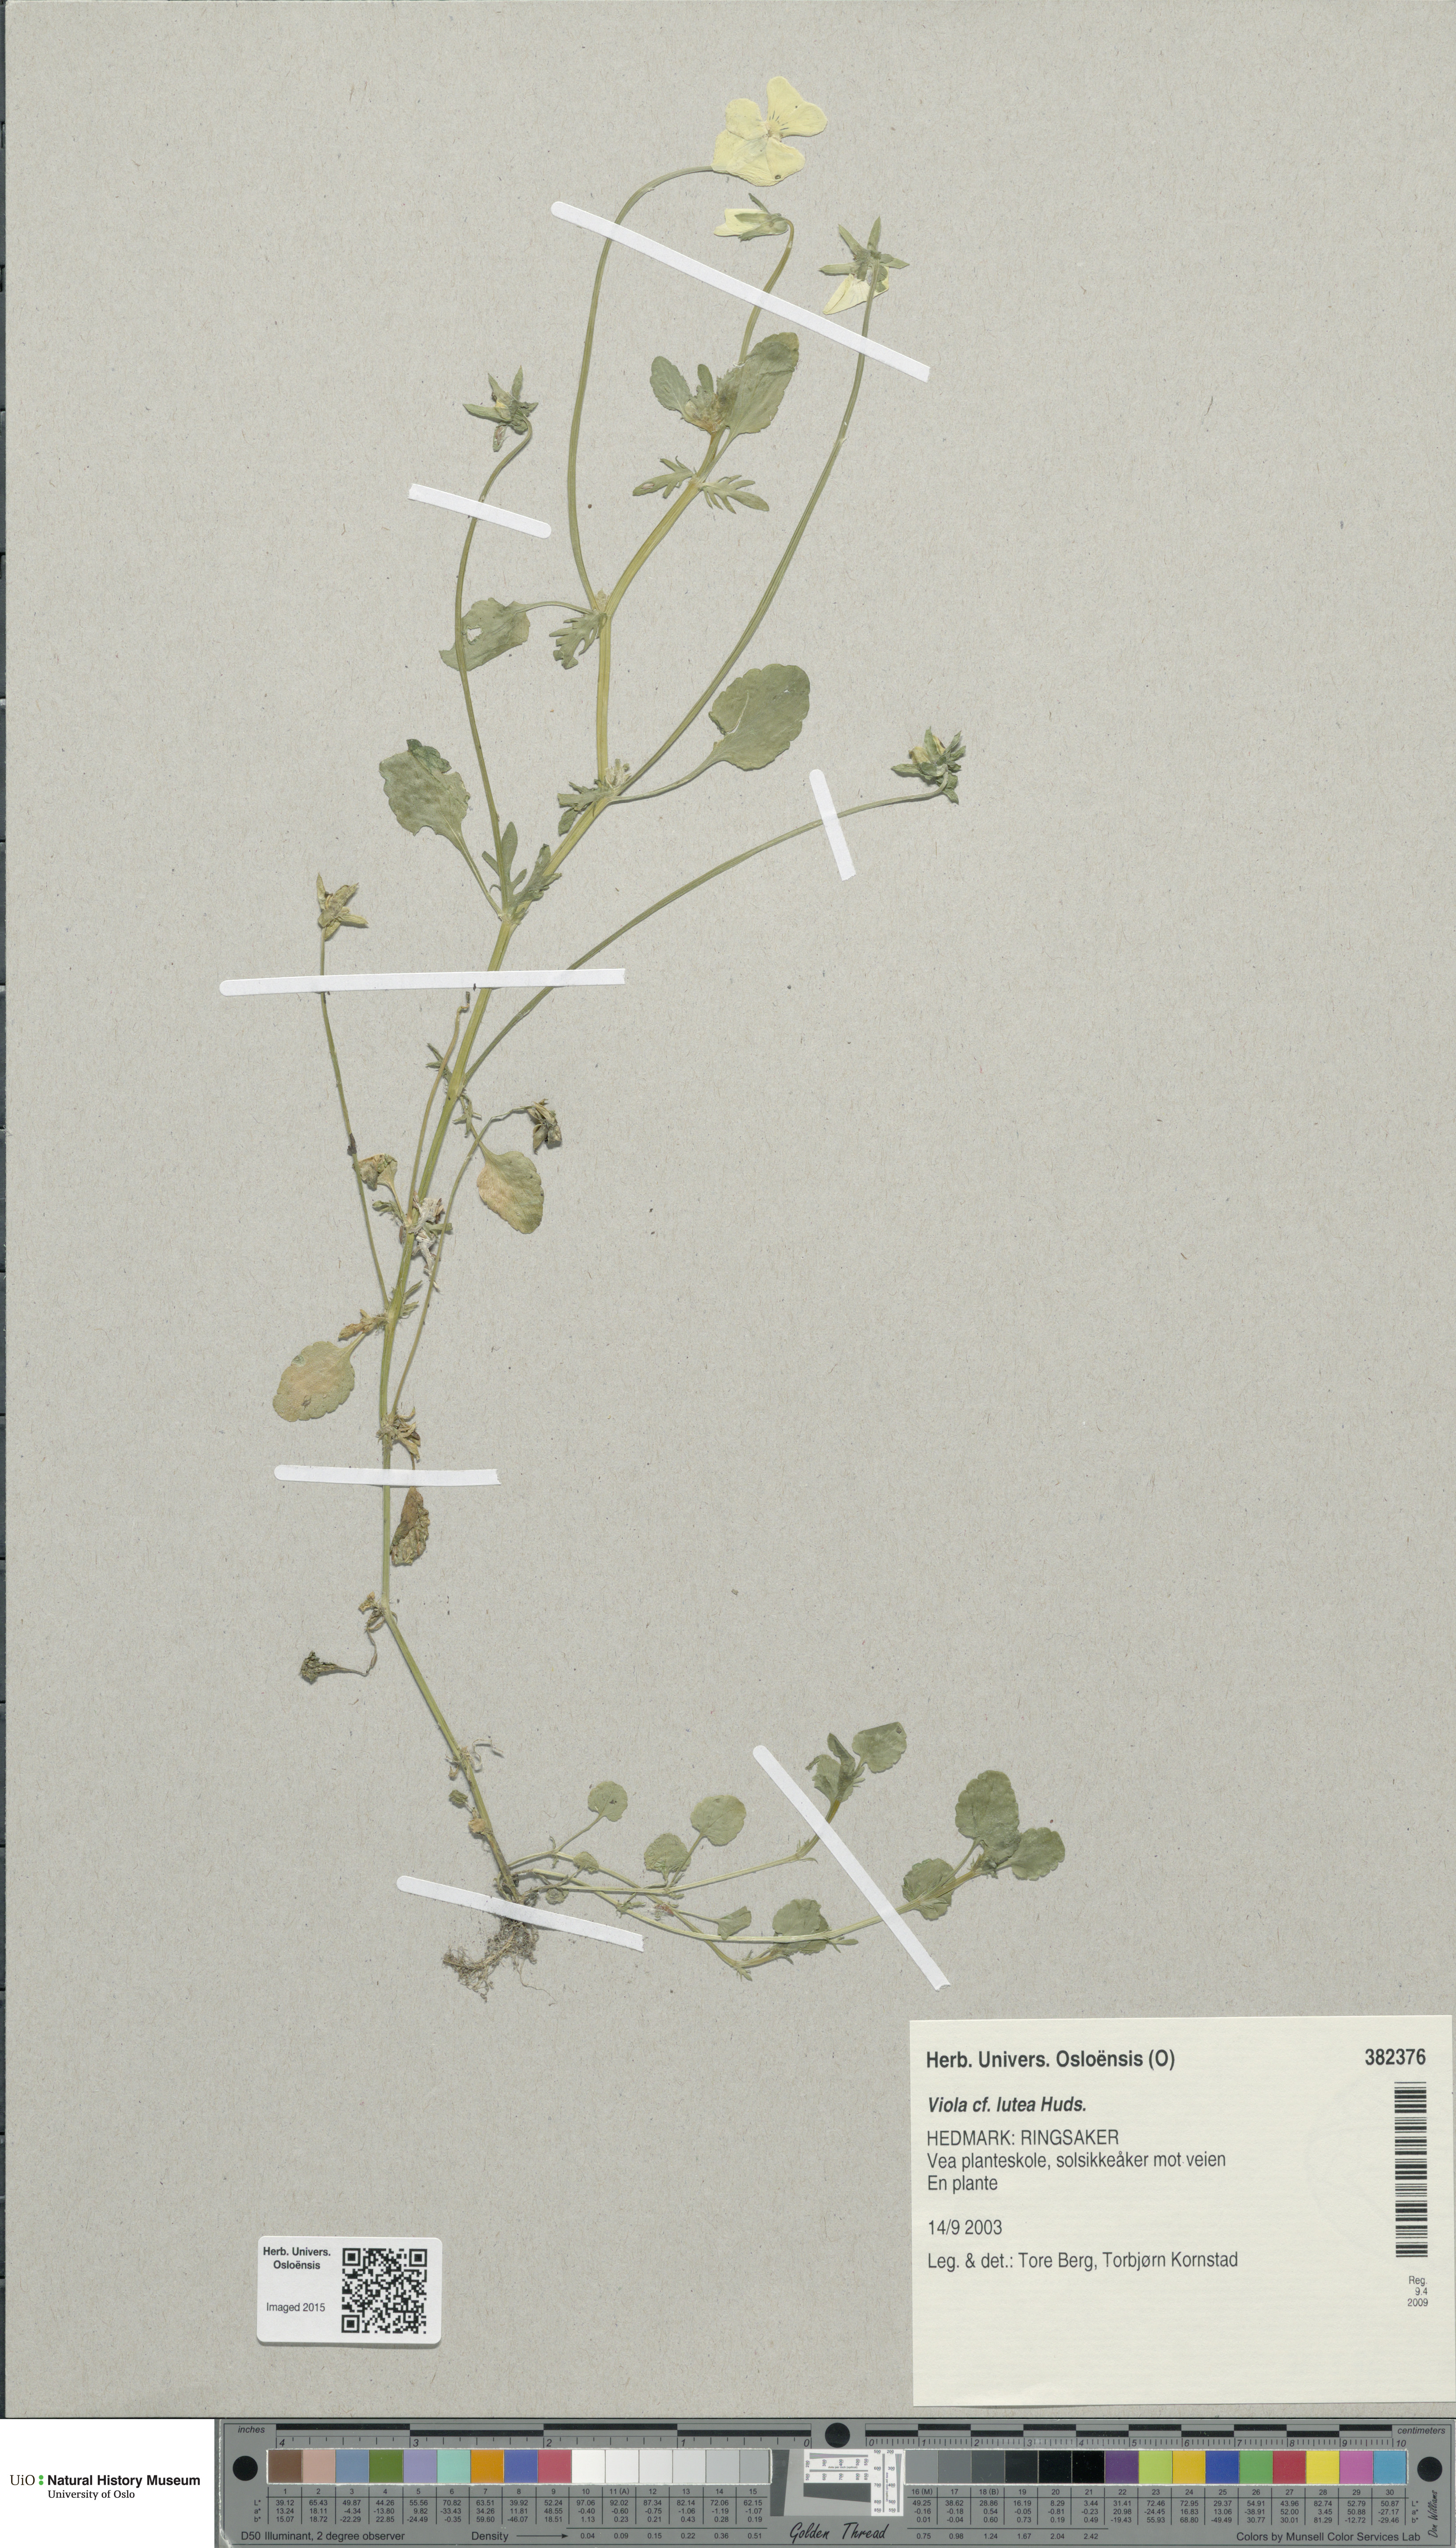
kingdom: Plantae
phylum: Tracheophyta
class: Magnoliopsida
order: Malpighiales
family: Violaceae
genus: Viola
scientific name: Viola lutea
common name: Mountain pansy
